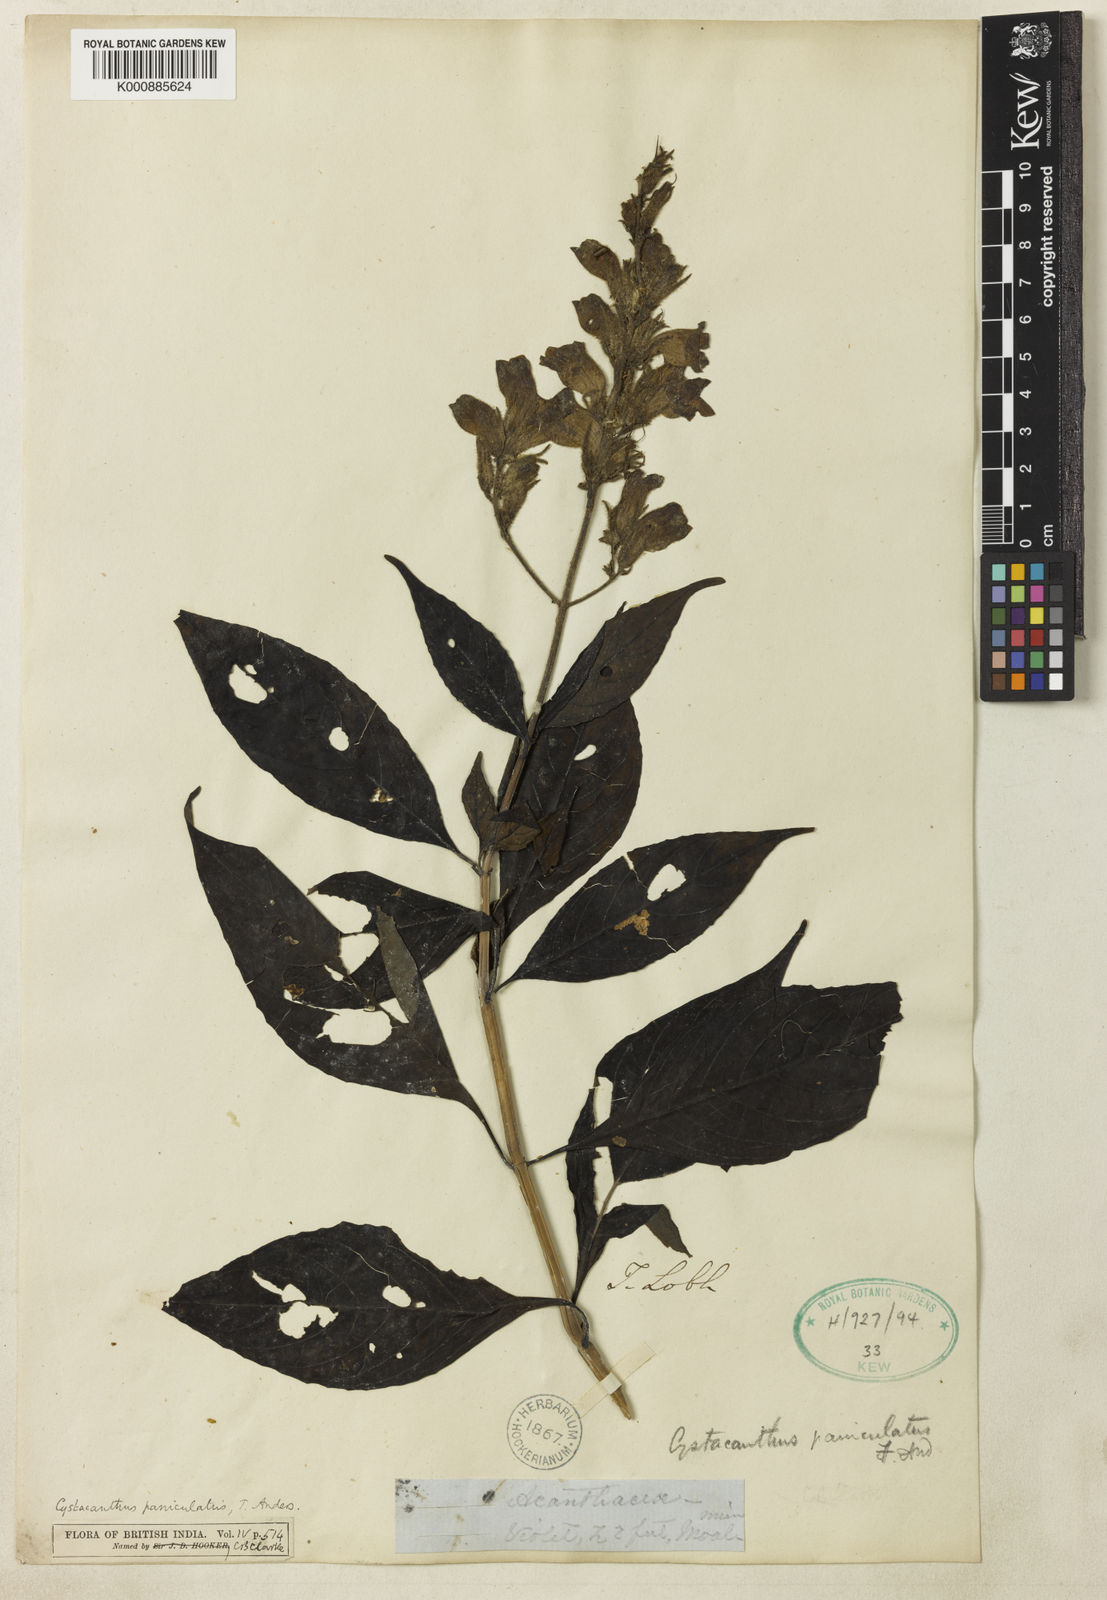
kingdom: Plantae
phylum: Tracheophyta
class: Magnoliopsida
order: Lamiales
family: Acanthaceae
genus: Phlogacanthus
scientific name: Phlogacanthus paniculatus
